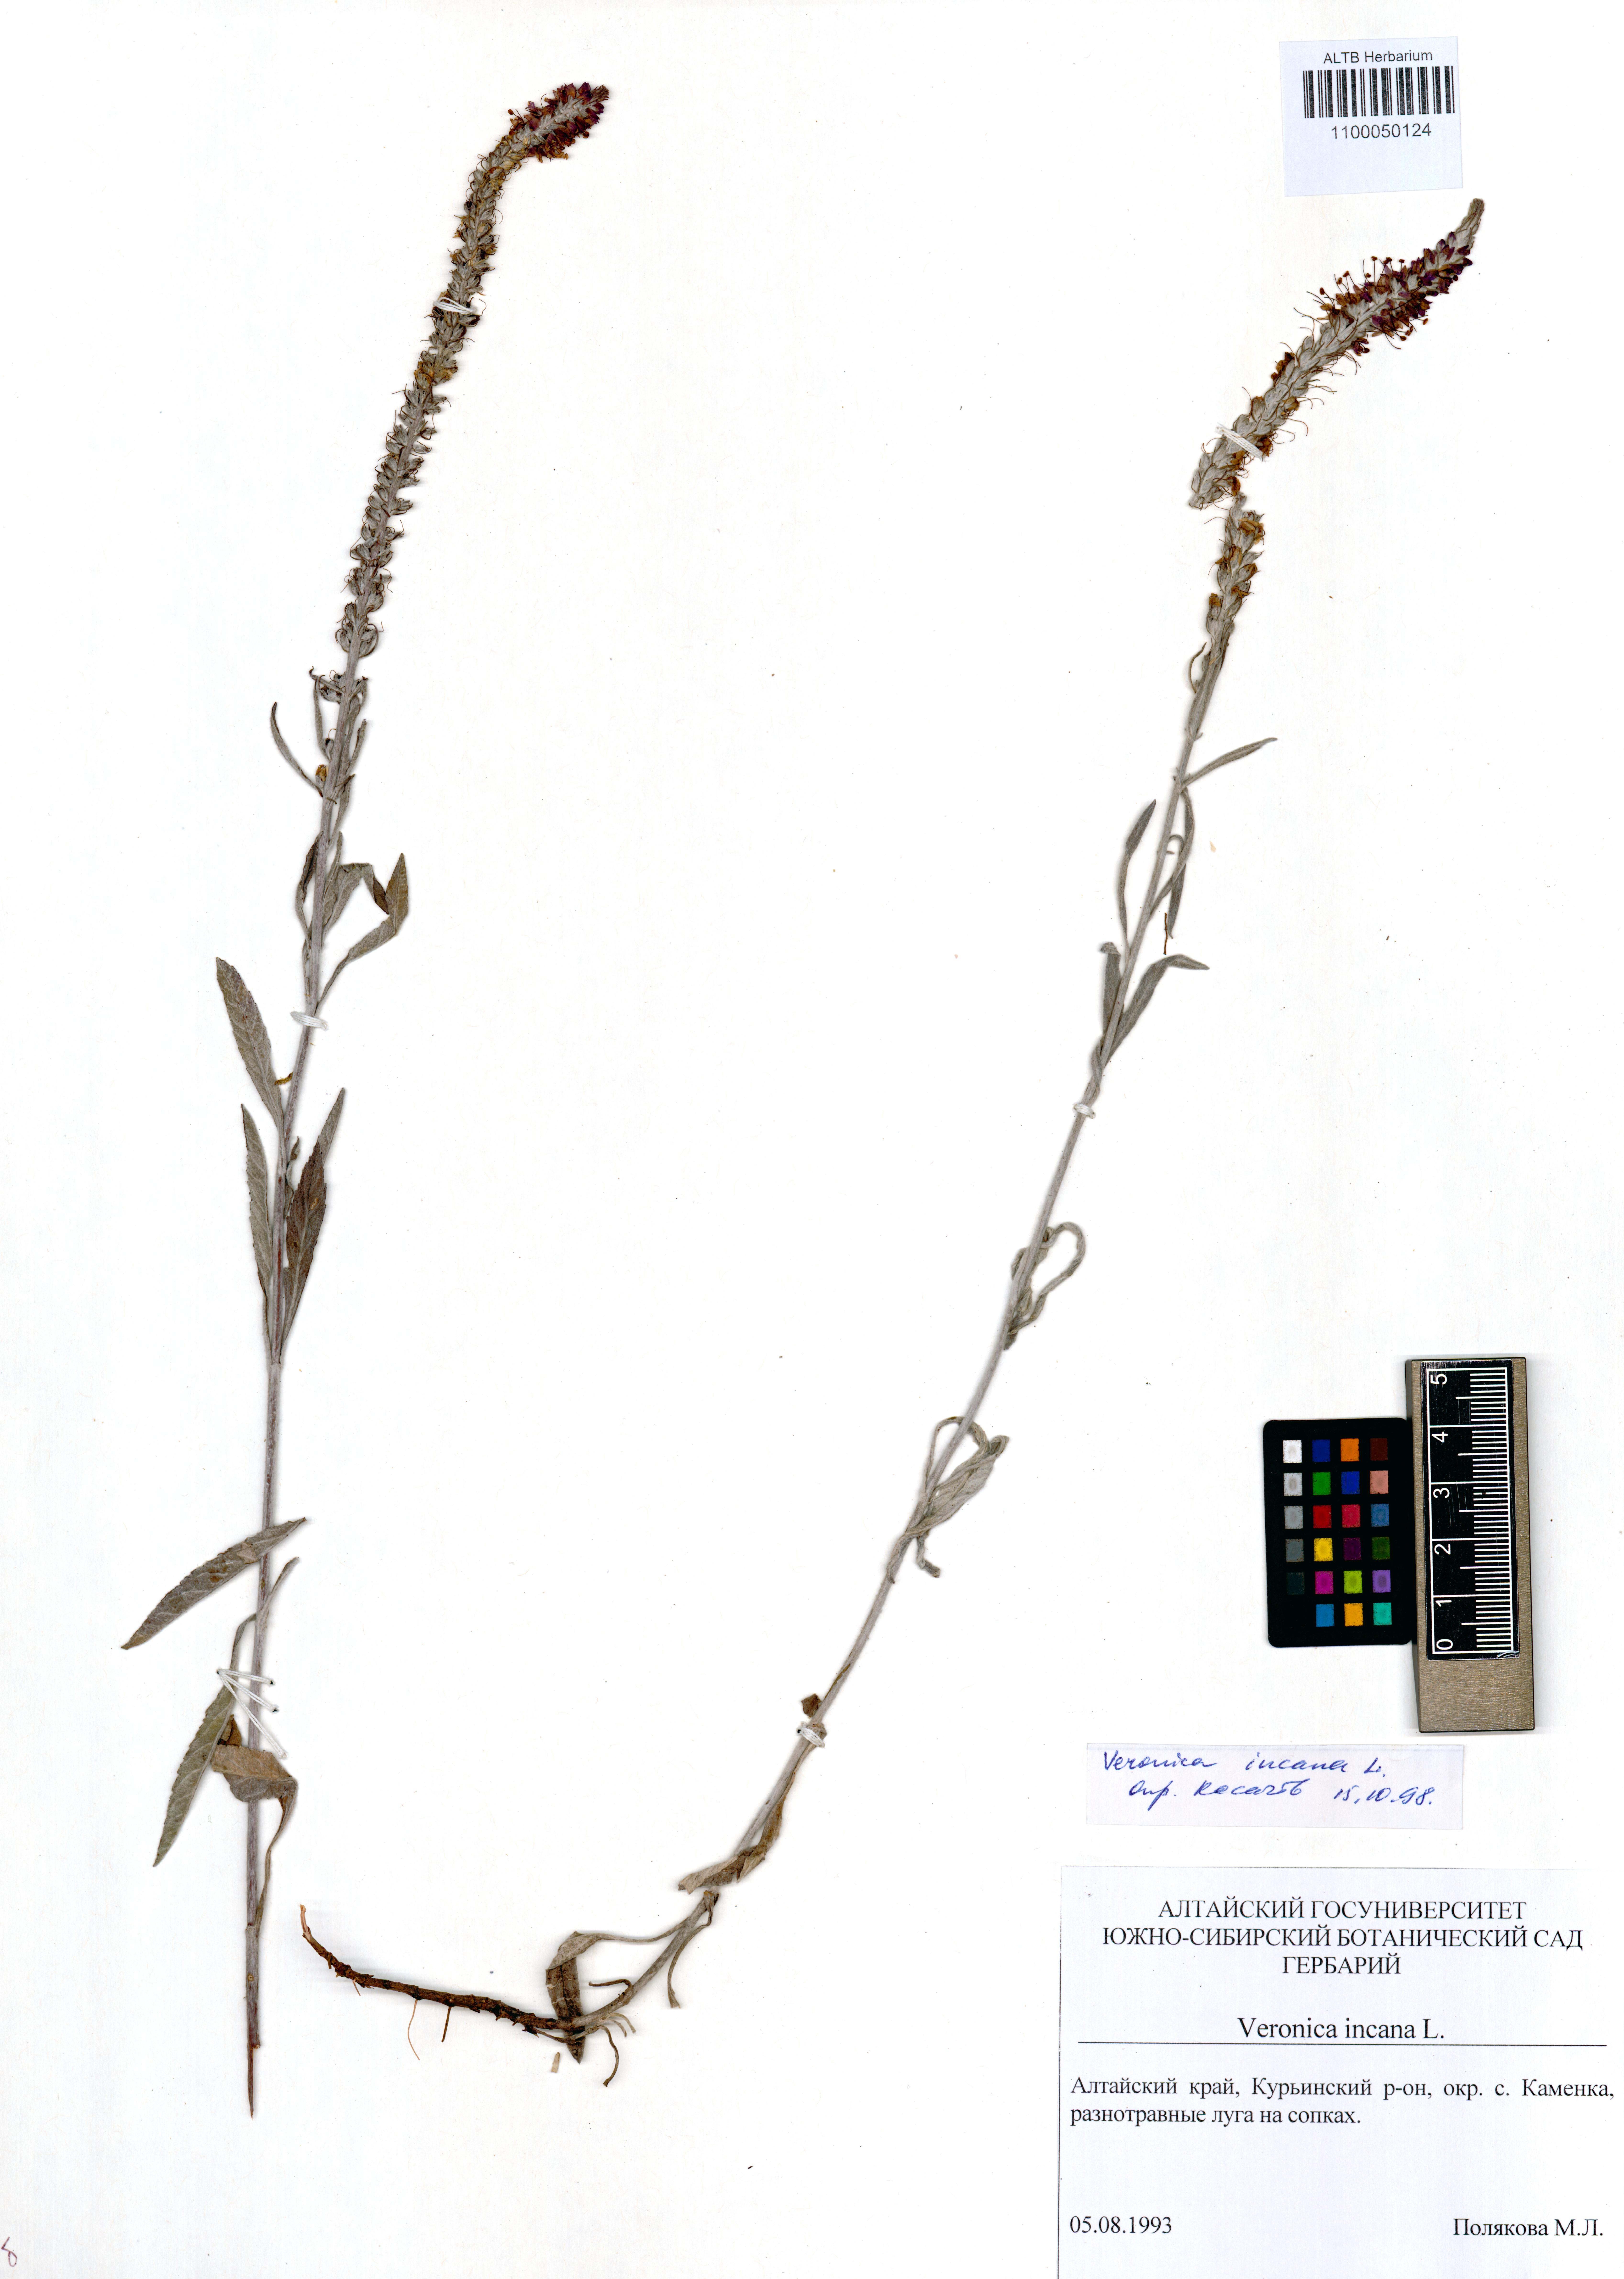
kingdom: Plantae
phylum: Tracheophyta
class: Magnoliopsida
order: Lamiales
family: Plantaginaceae
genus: Veronica
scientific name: Veronica incana
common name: Silver speedwell
